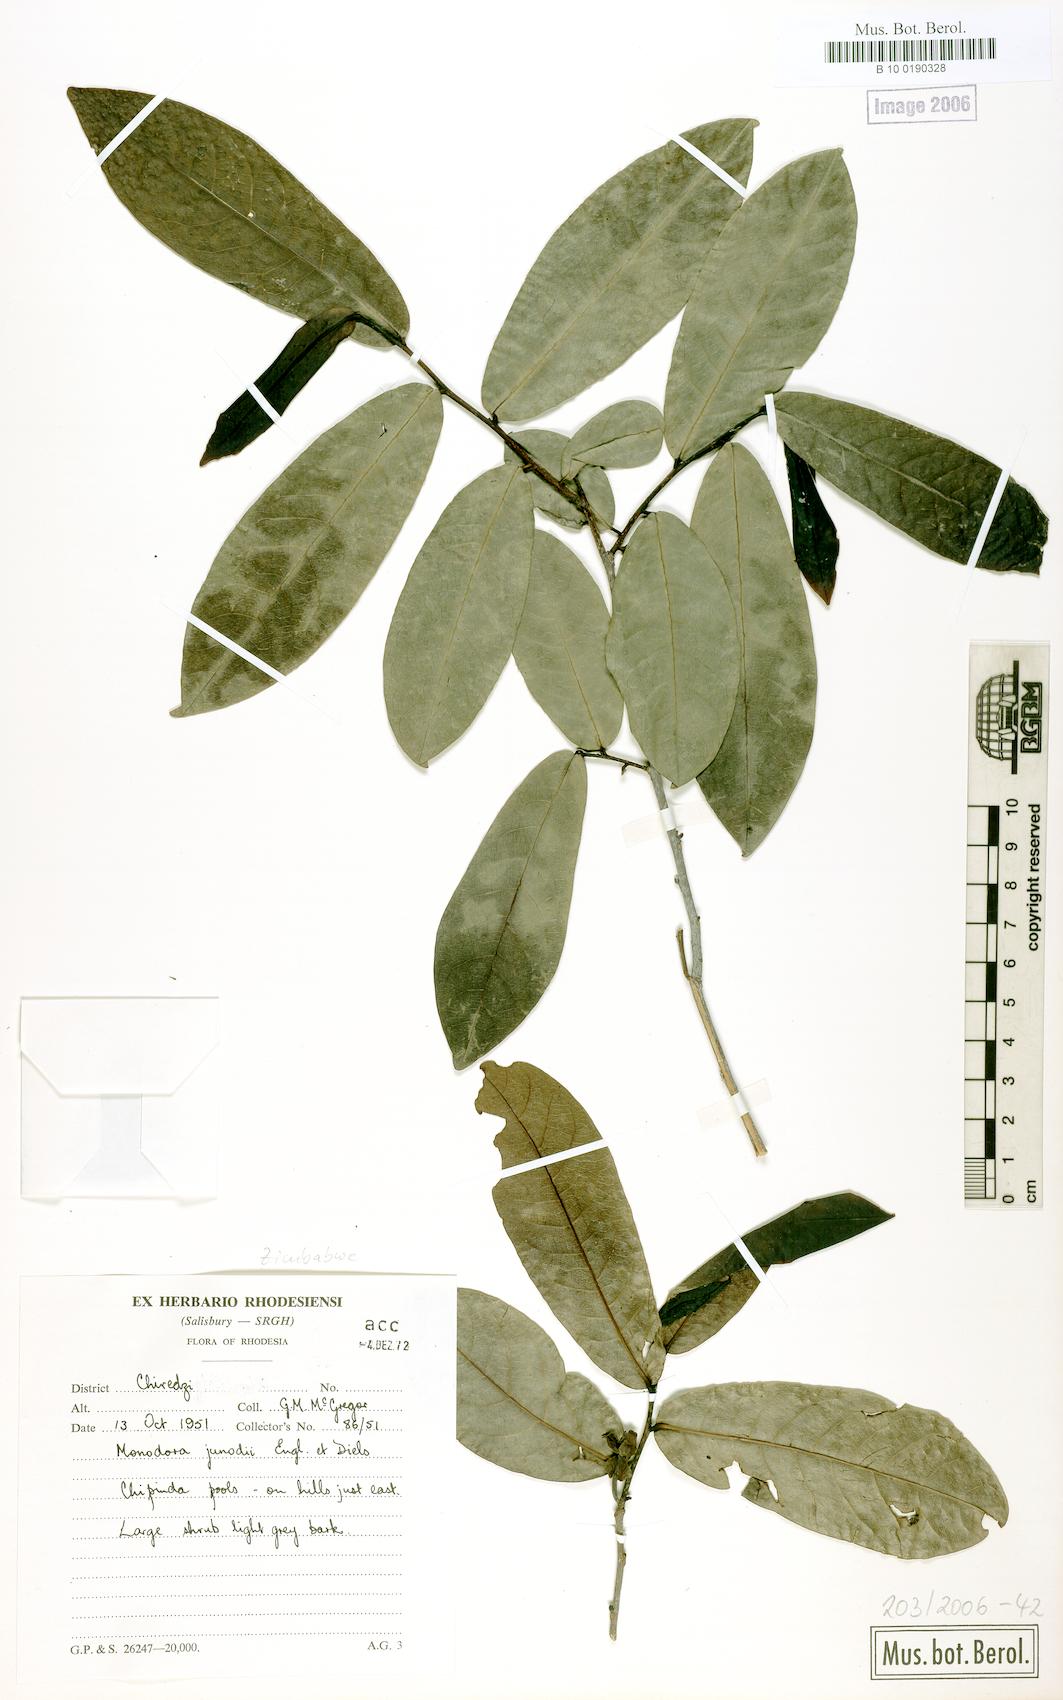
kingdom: Plantae
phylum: Tracheophyta
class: Magnoliopsida
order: Magnoliales
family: Annonaceae
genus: Monodora
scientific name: Monodora junodii
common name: Green-apple
